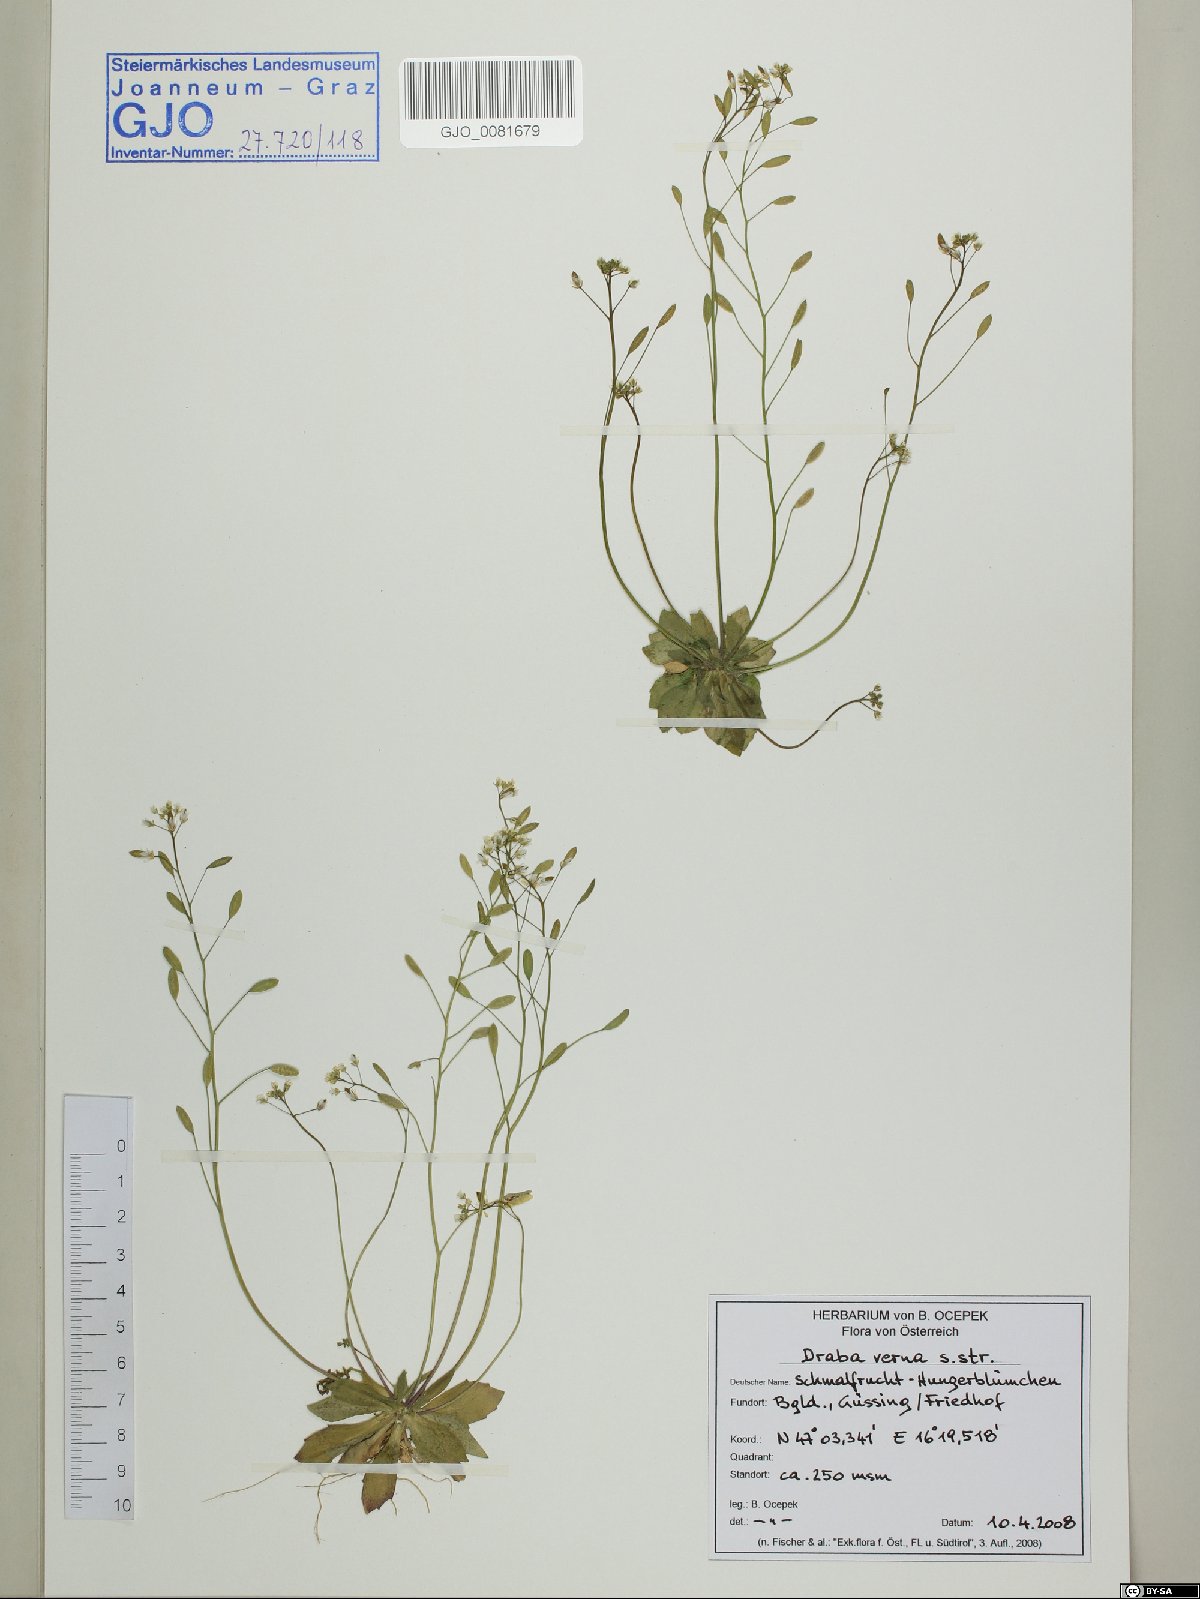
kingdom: Plantae
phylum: Tracheophyta
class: Magnoliopsida
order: Brassicales
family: Brassicaceae
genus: Draba
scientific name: Draba verna
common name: Spring draba
